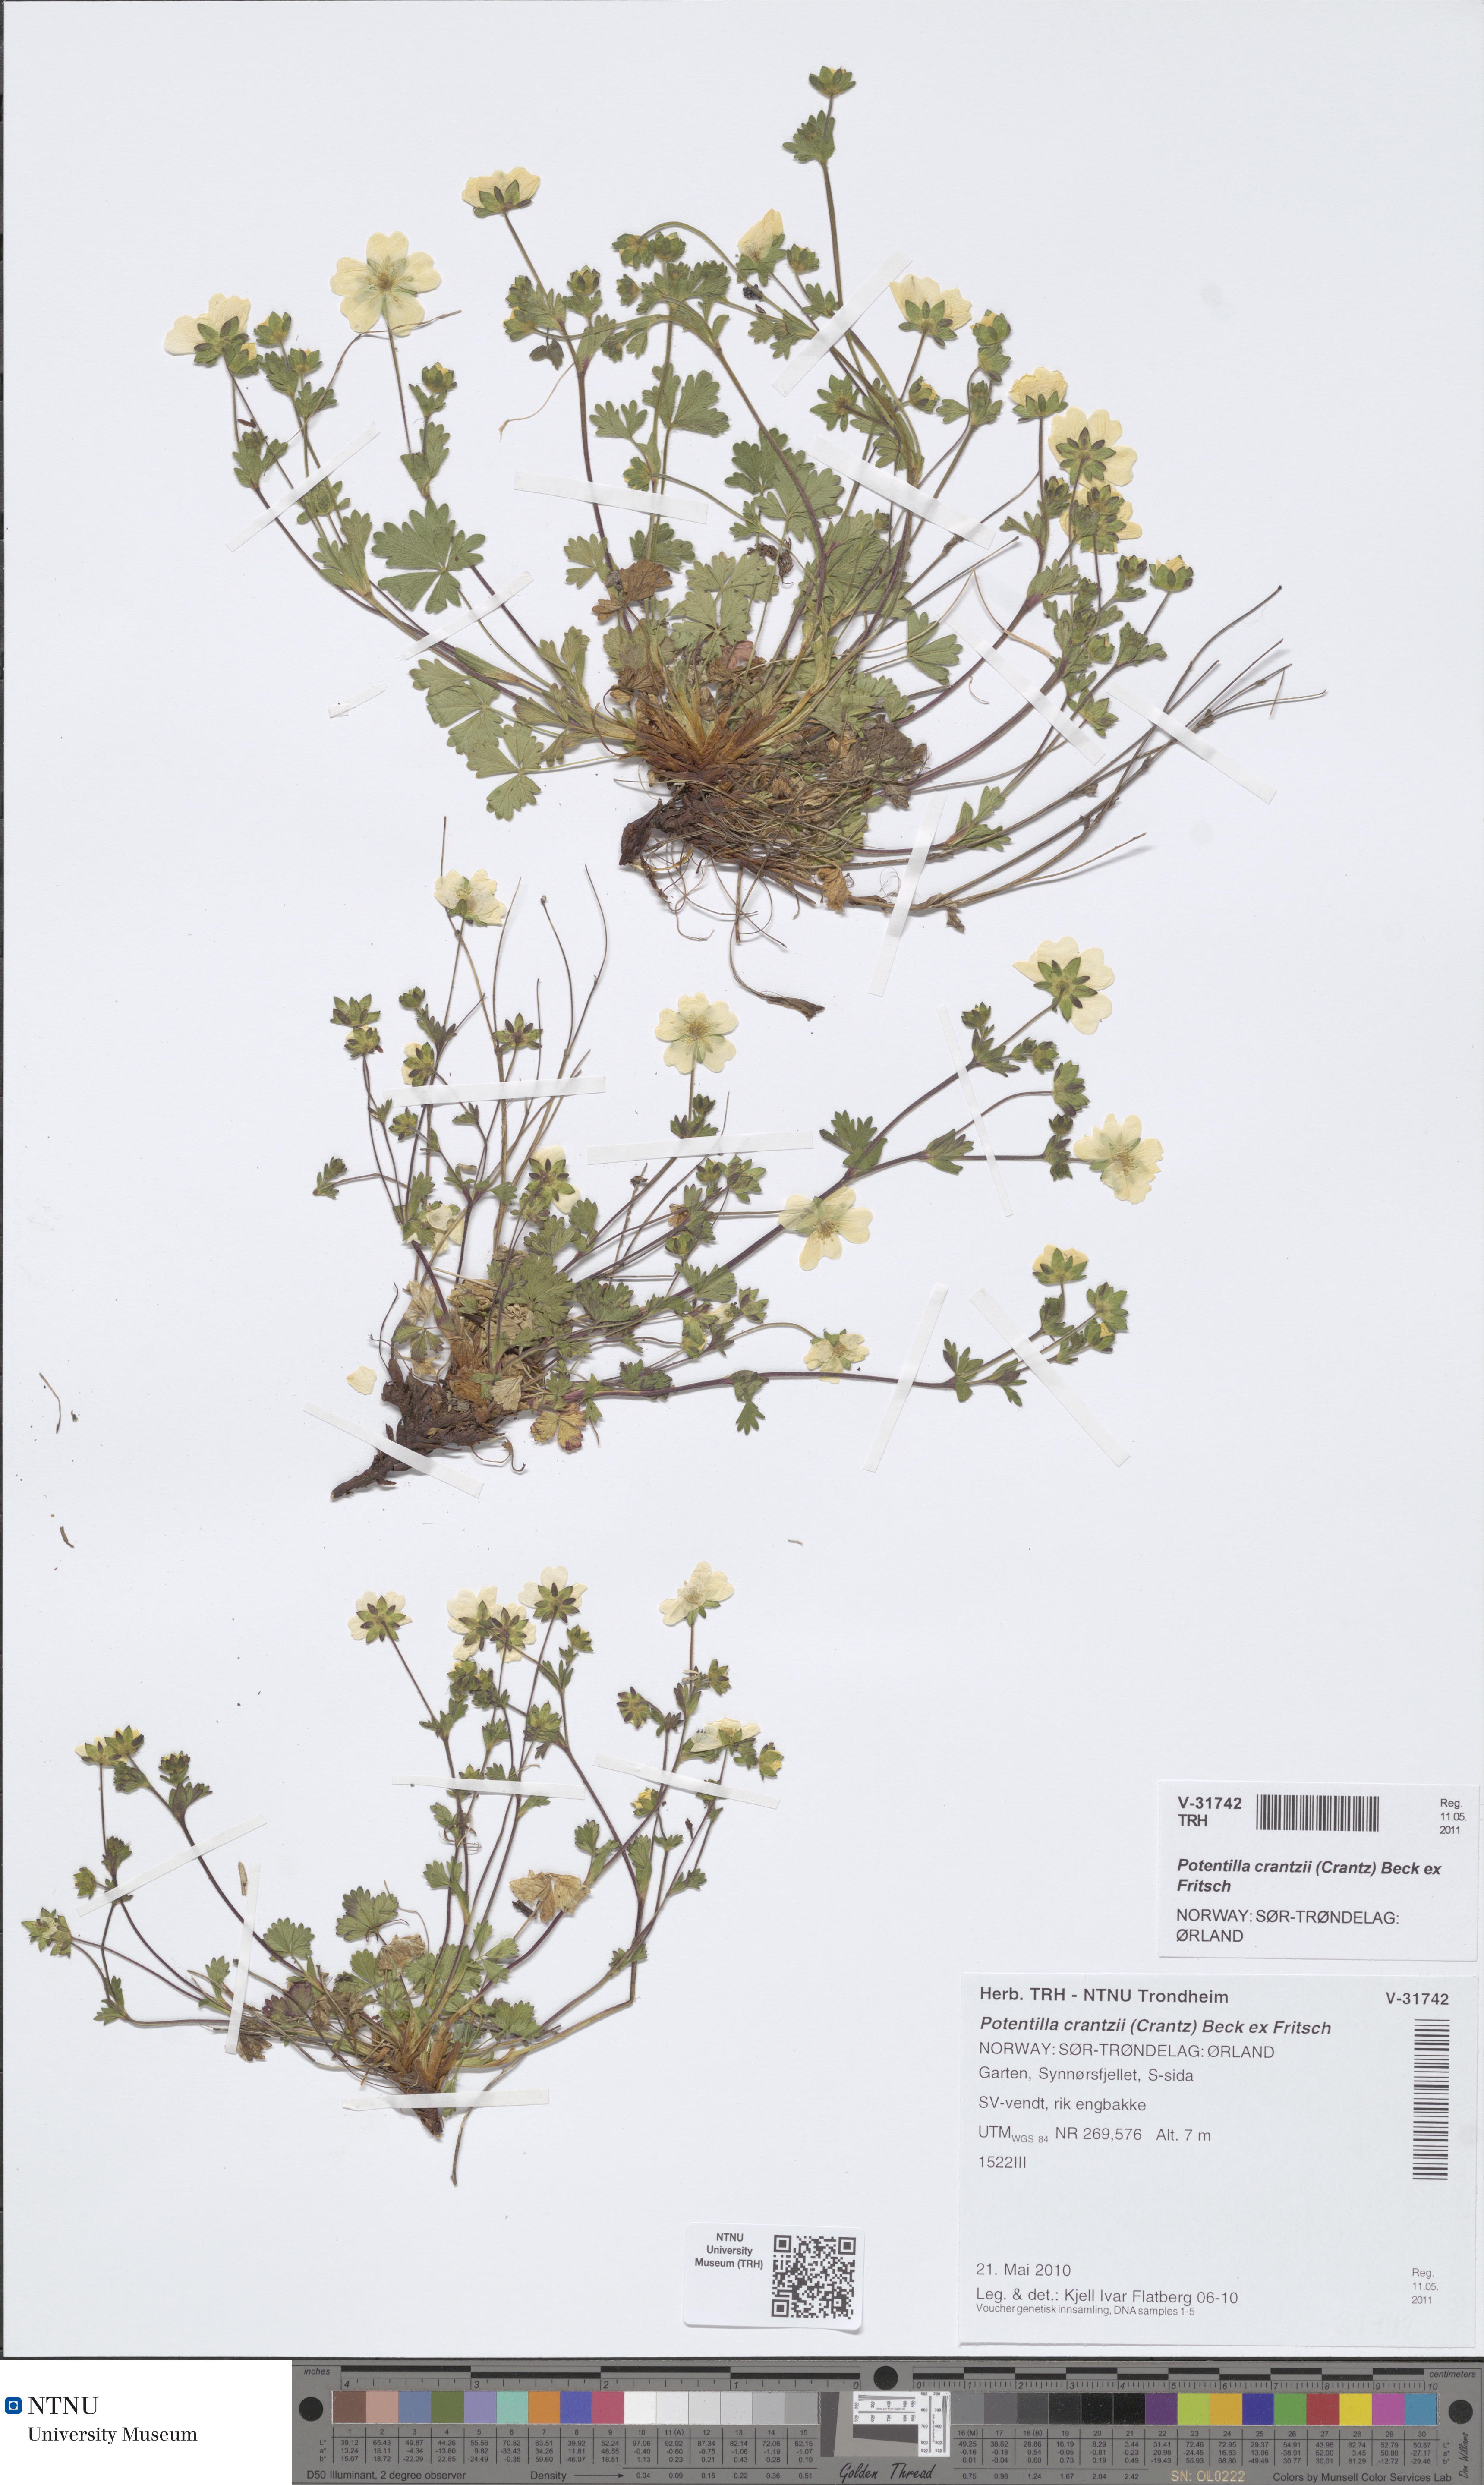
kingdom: Plantae
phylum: Tracheophyta
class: Magnoliopsida
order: Rosales
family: Rosaceae
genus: Potentilla
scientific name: Potentilla crantzii
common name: Alpine cinquefoil
